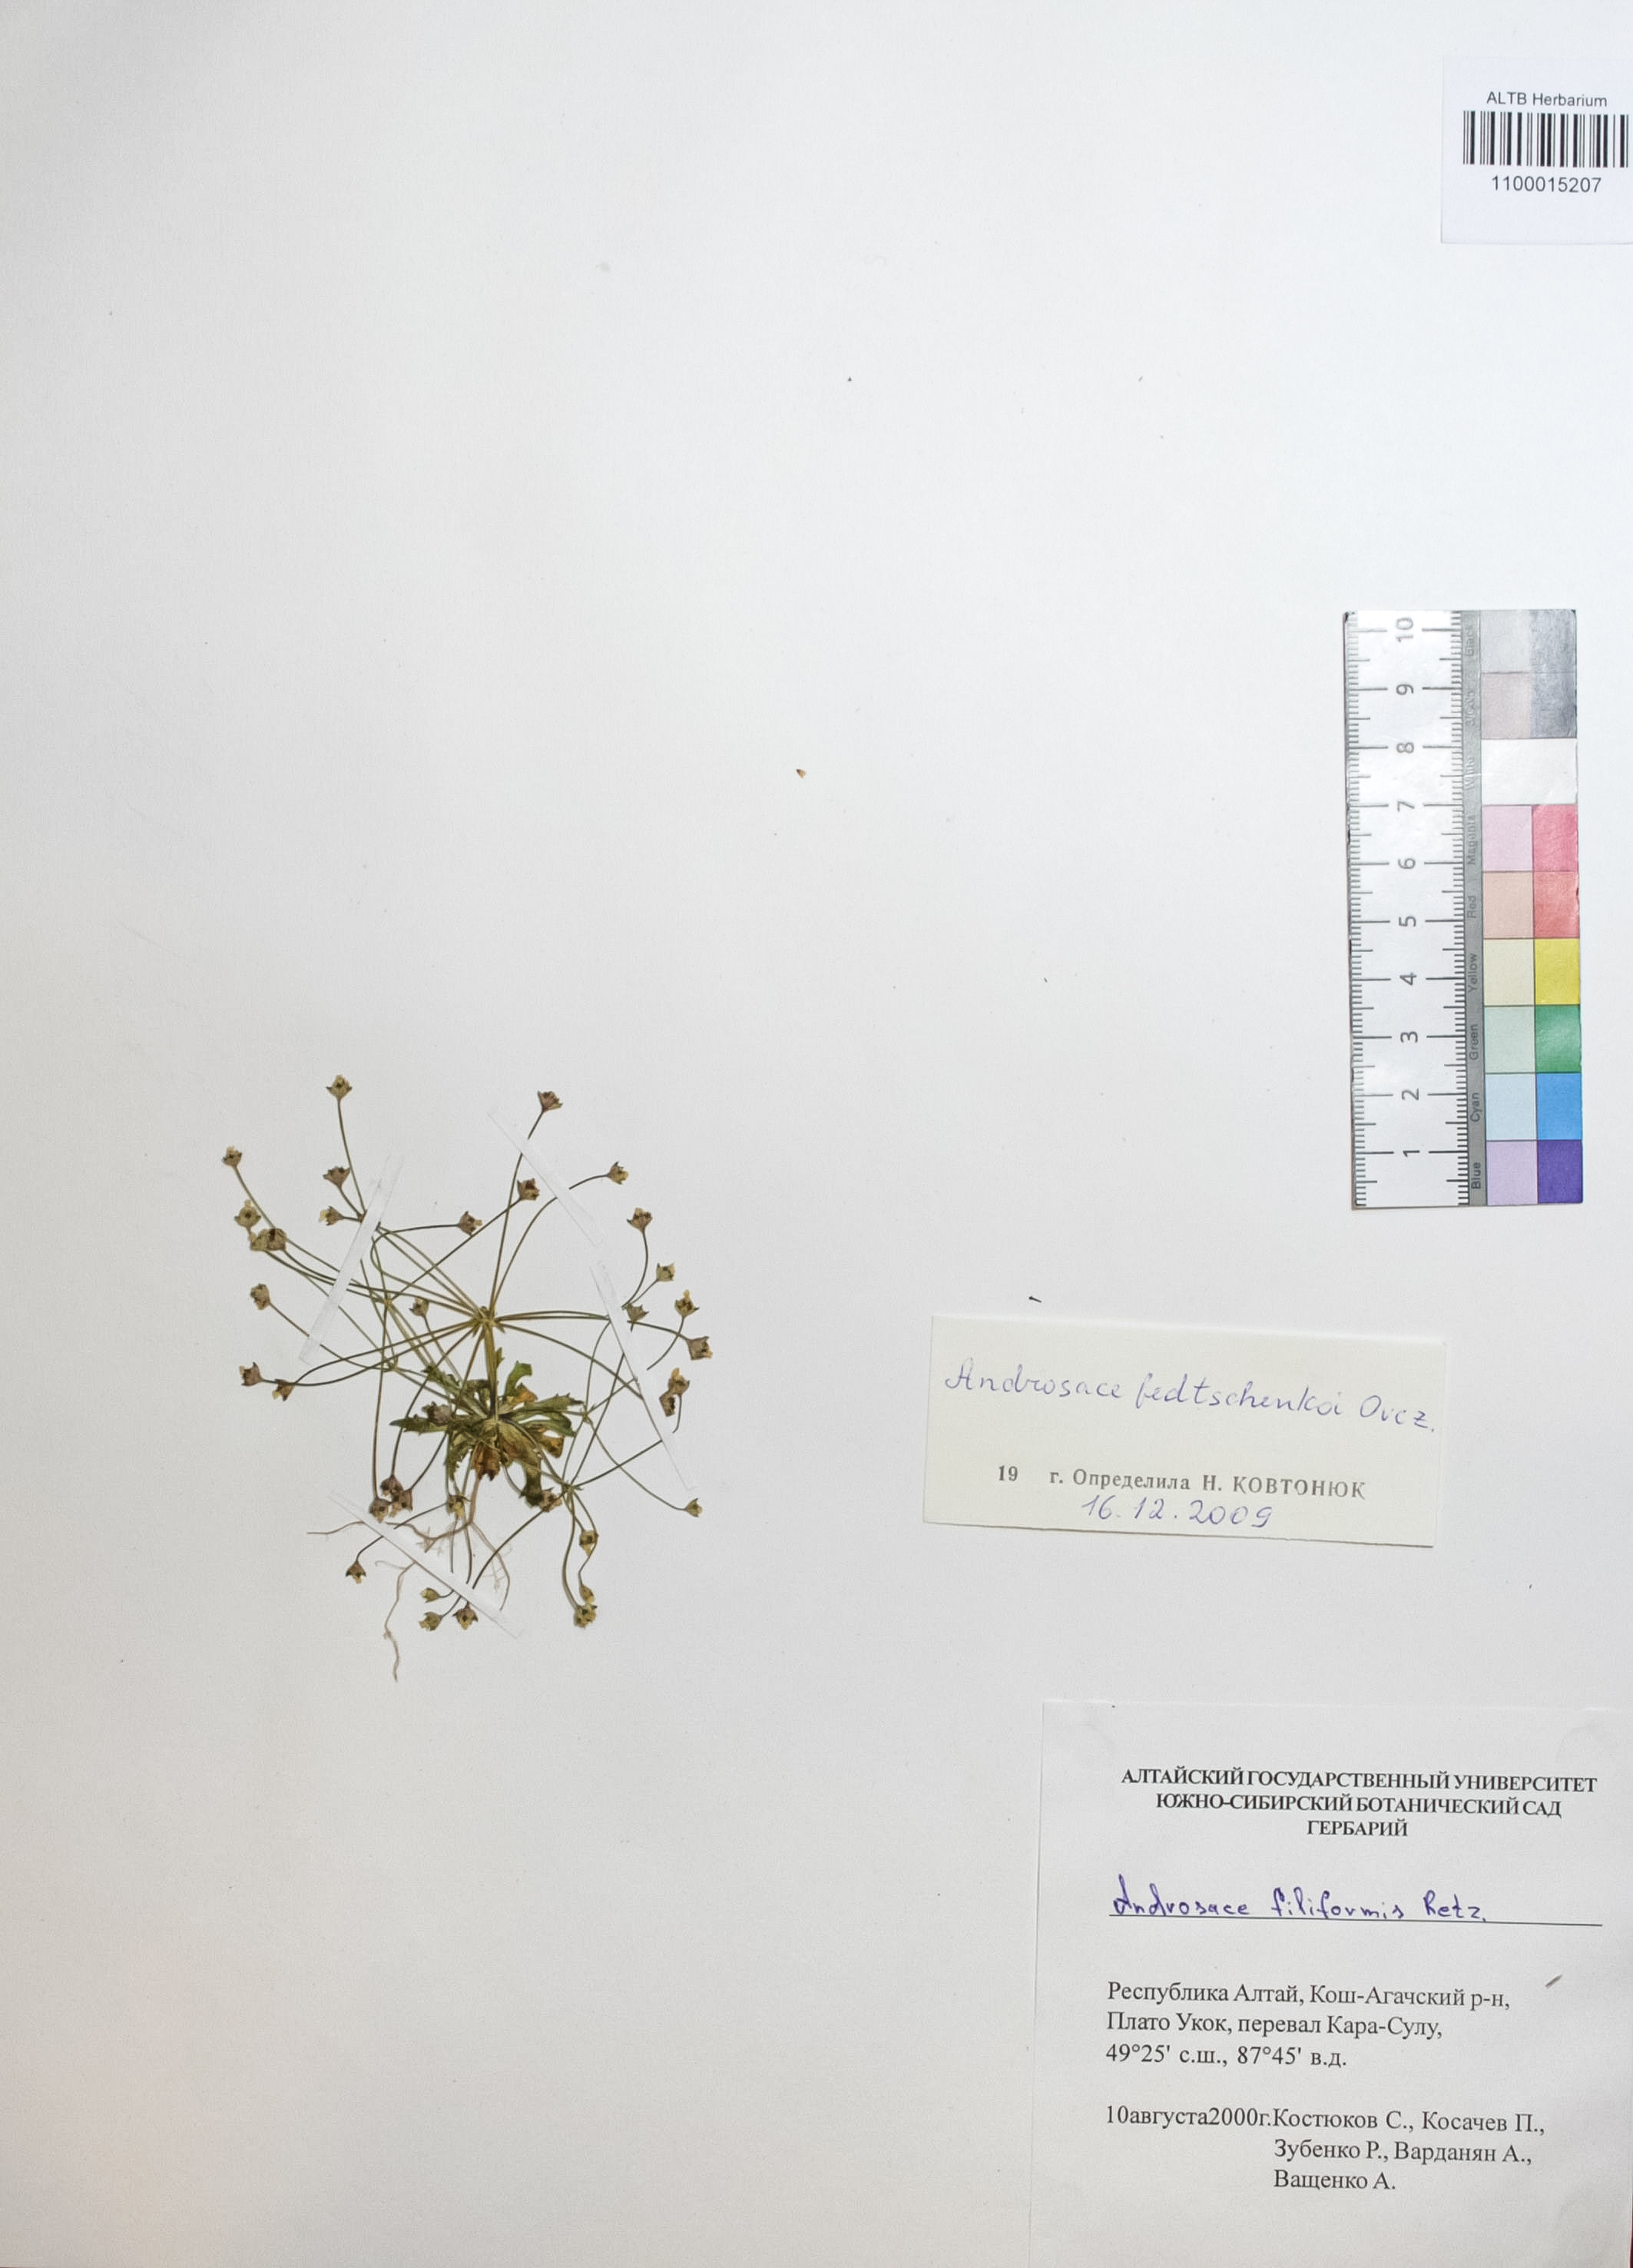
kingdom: Plantae
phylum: Tracheophyta
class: Magnoliopsida
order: Ericales
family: Primulaceae
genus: Androsace
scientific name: Androsace fedtschenkoi
